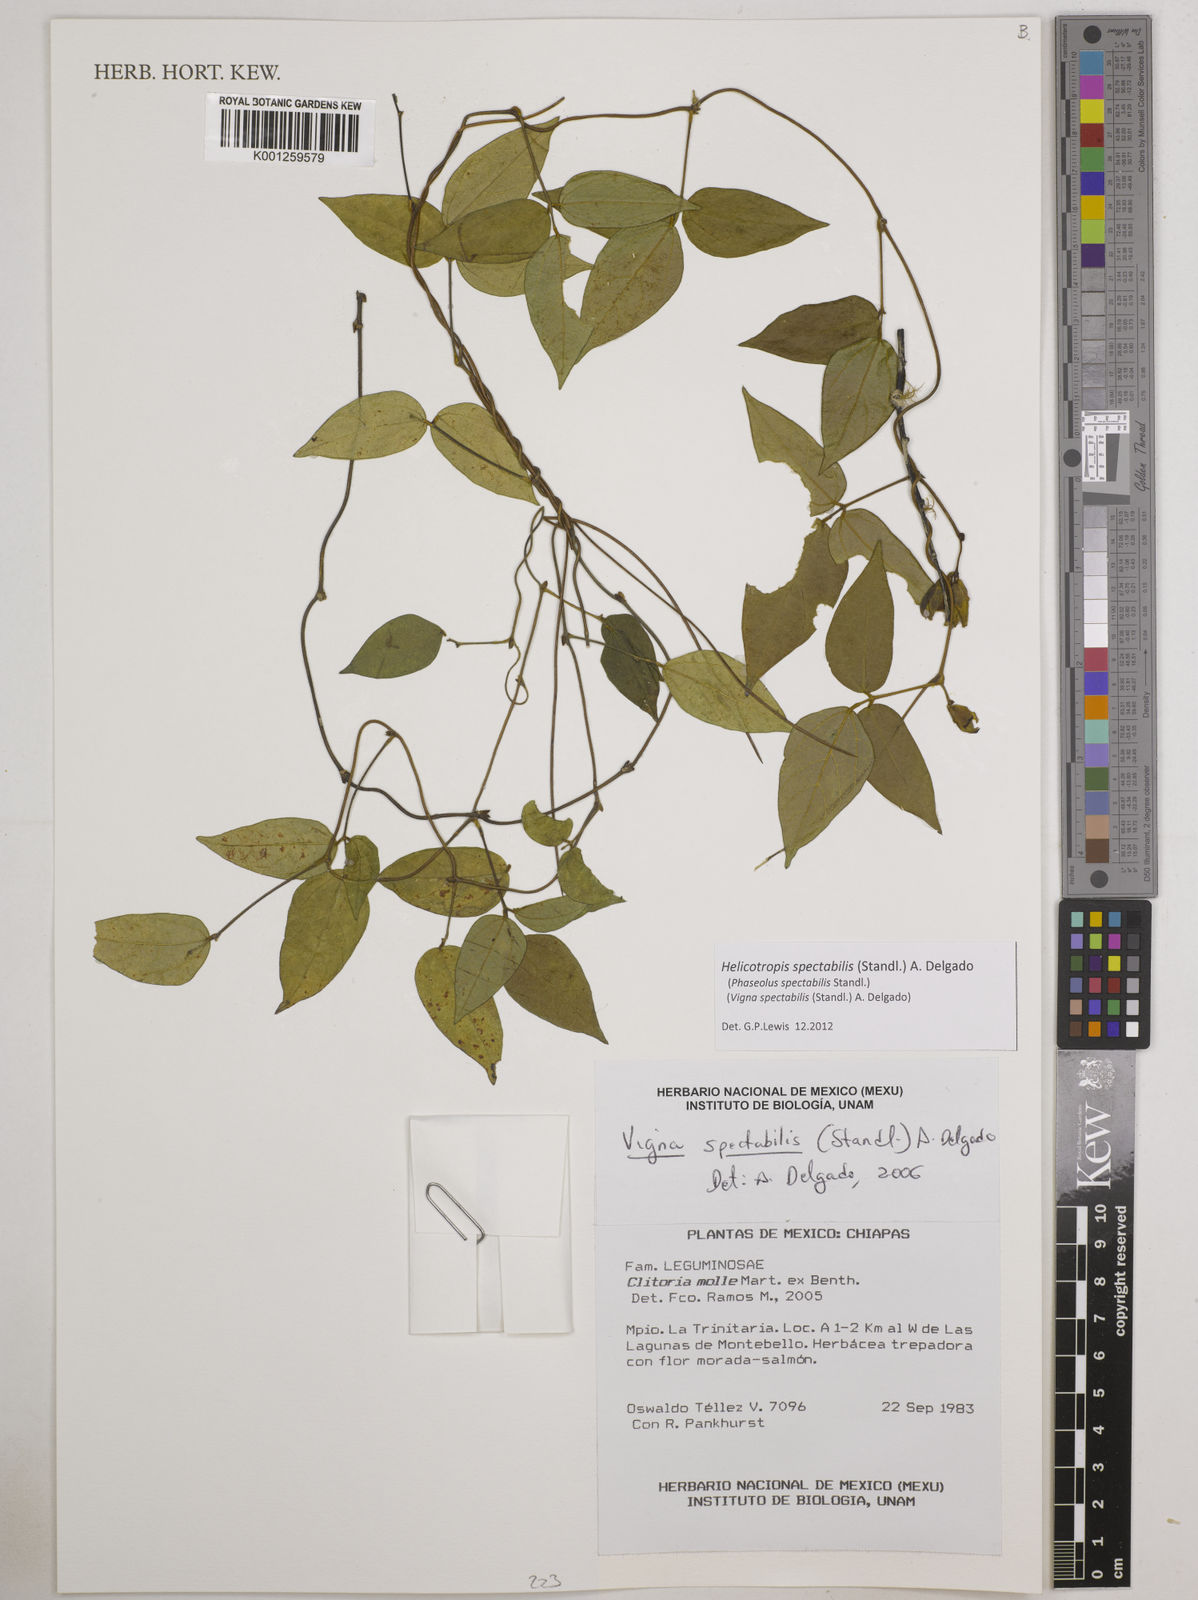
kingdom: Plantae
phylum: Tracheophyta
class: Magnoliopsida
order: Fabales
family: Fabaceae
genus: Helicotropis
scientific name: Helicotropis spectabilis
